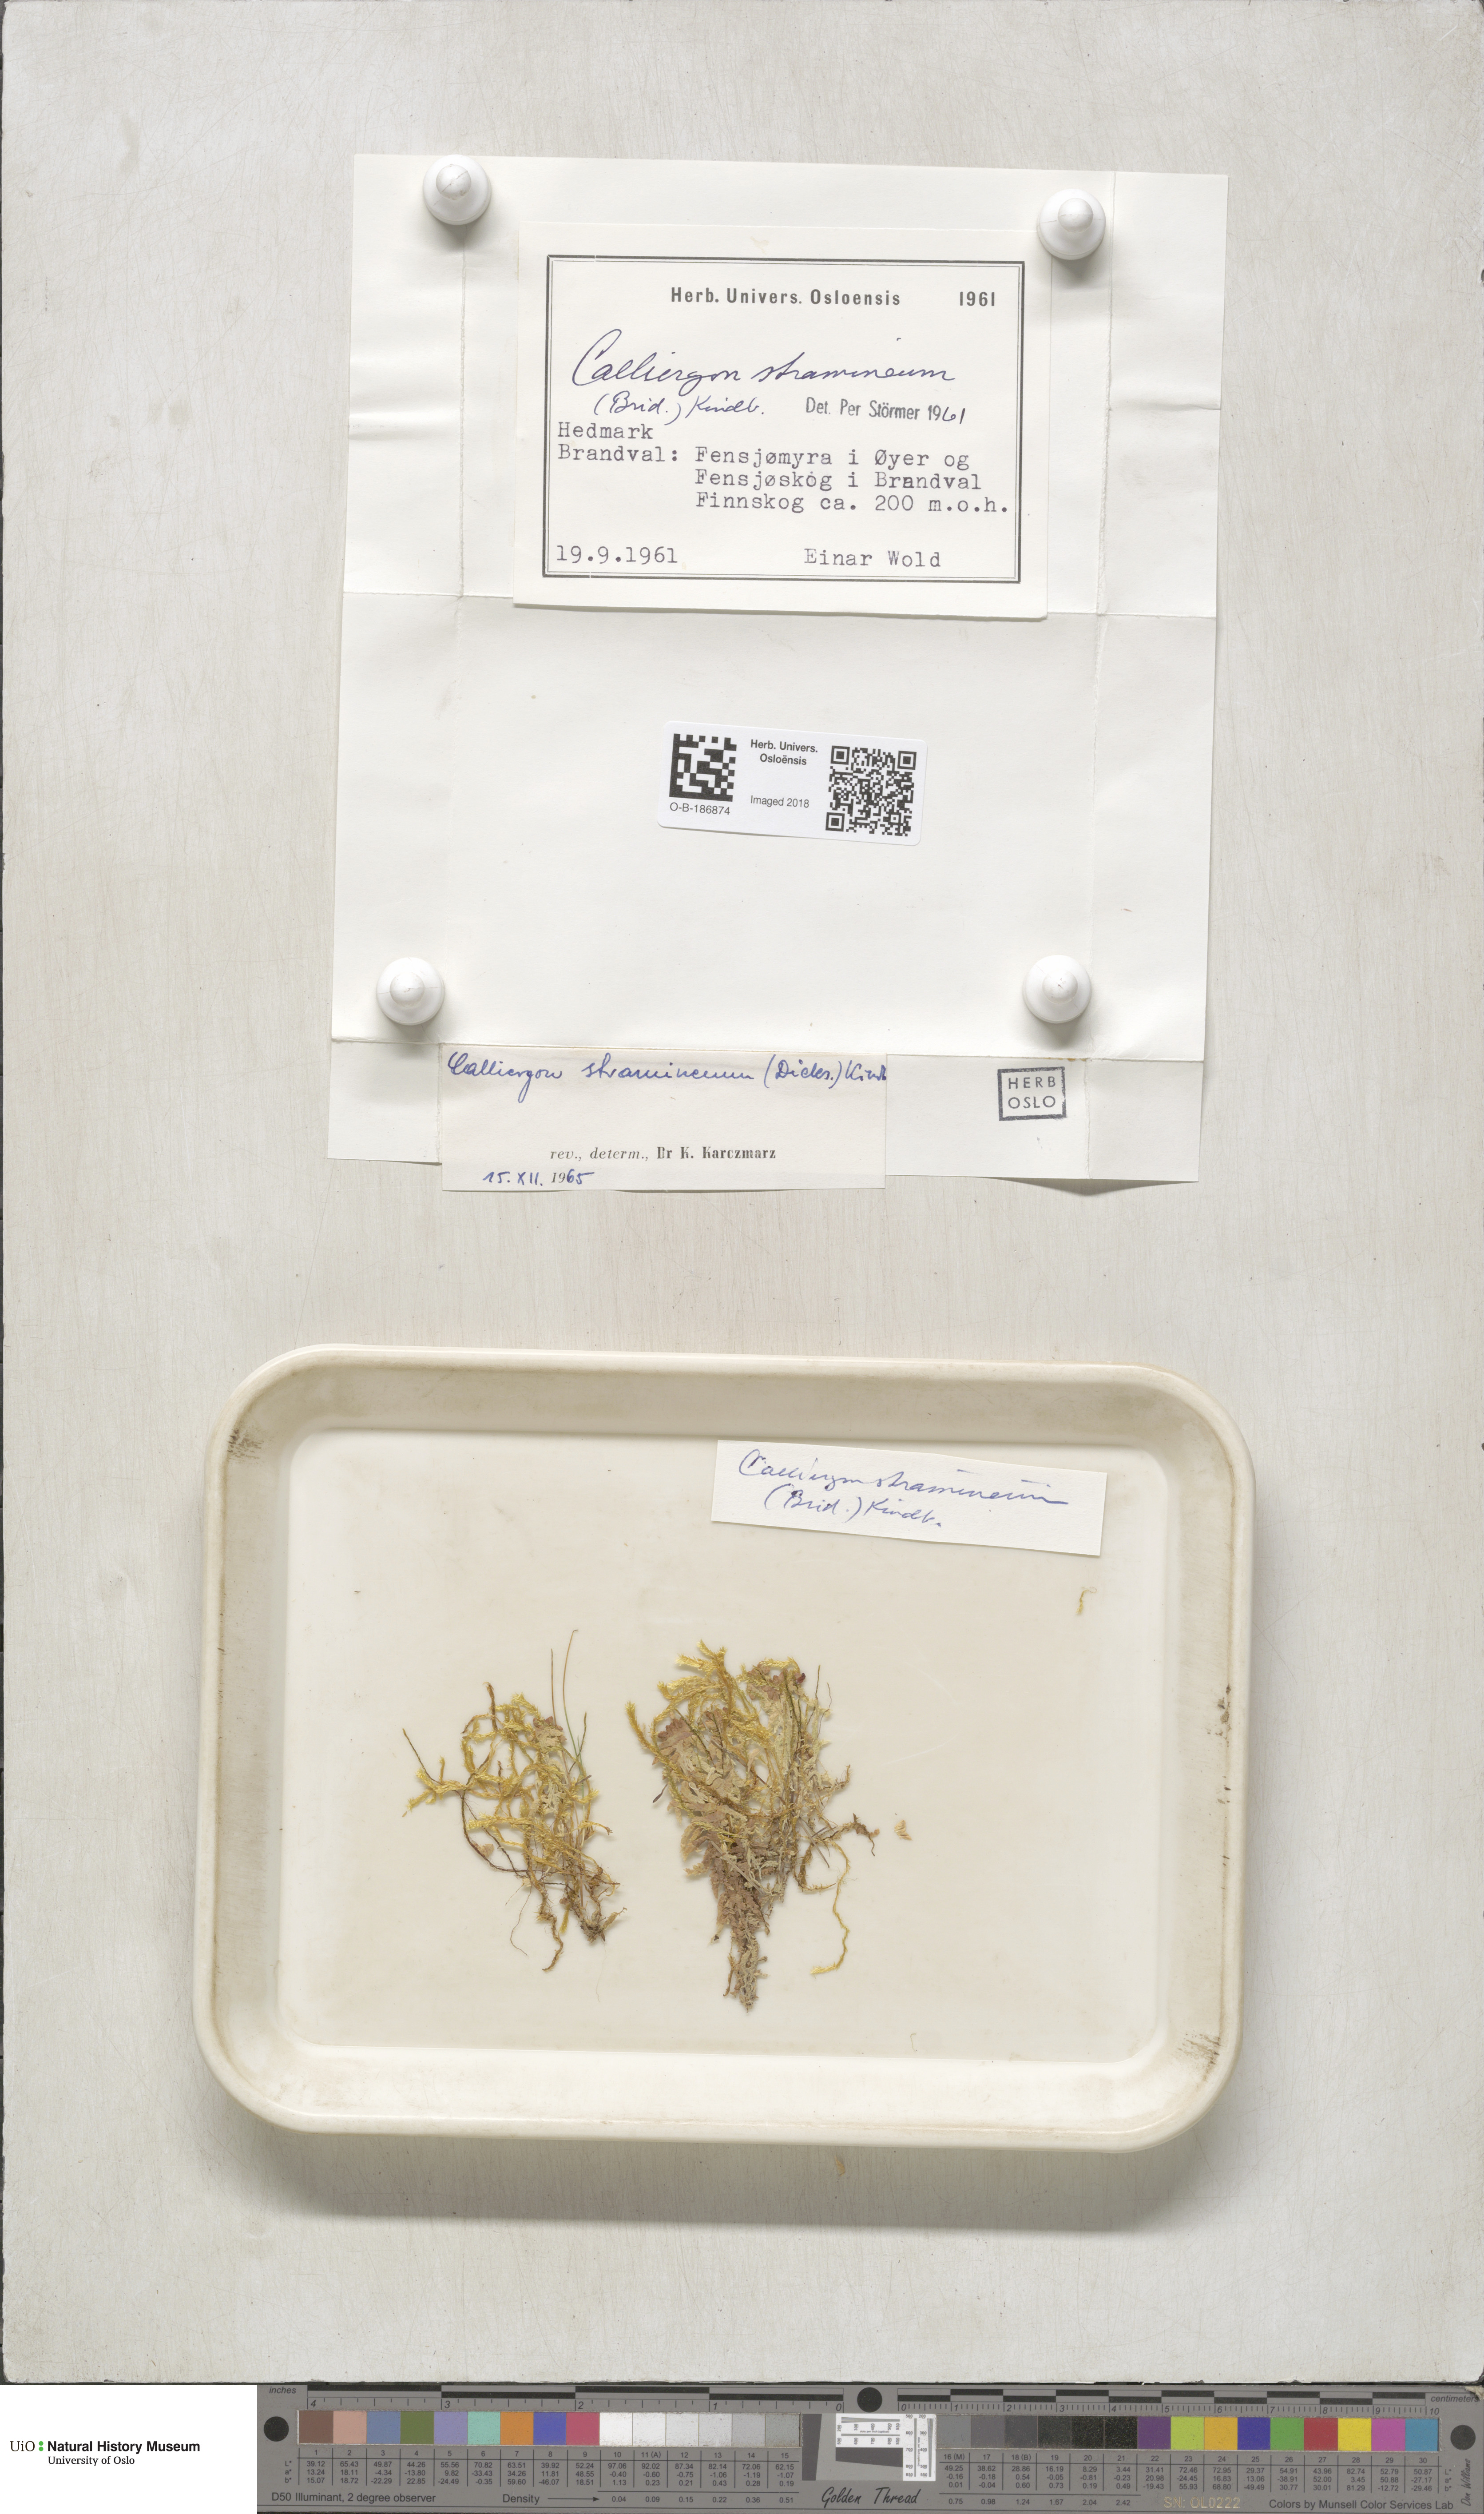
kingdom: Plantae
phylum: Bryophyta
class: Bryopsida
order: Hypnales
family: Calliergonaceae
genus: Straminergon
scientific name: Straminergon stramineum
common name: Straw moss
